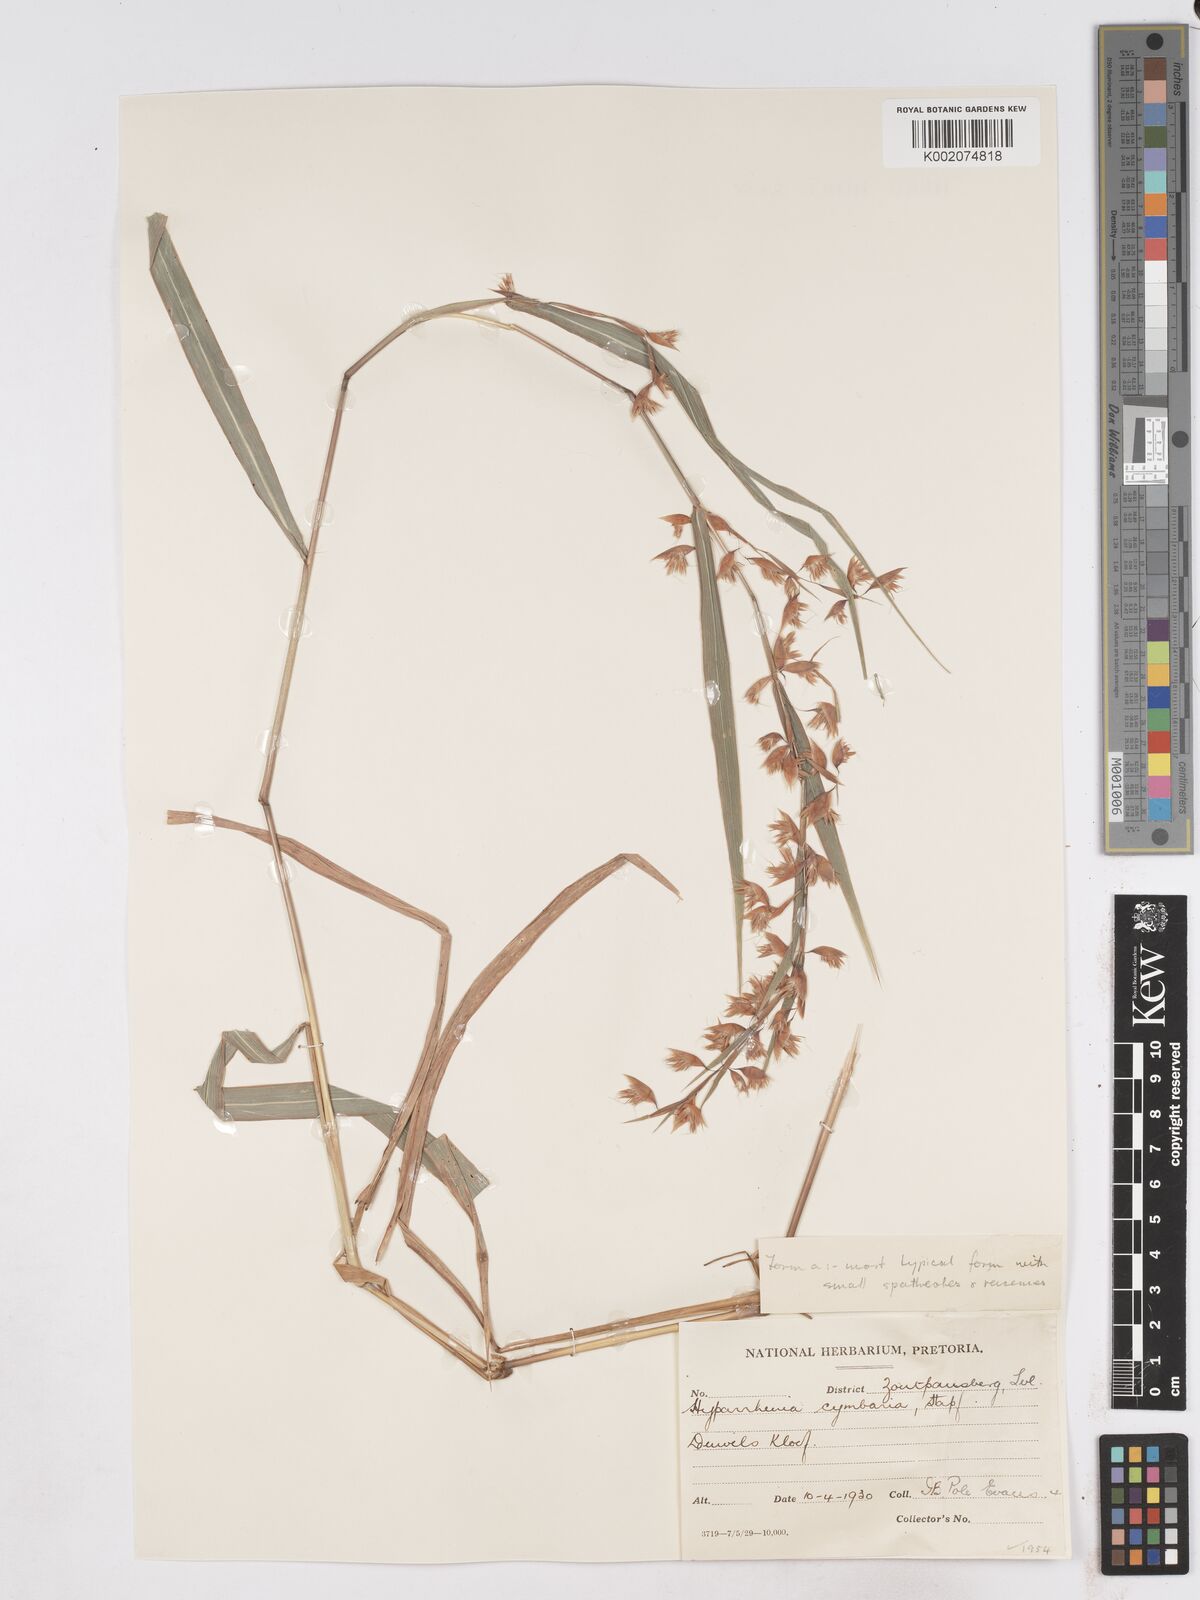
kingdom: Plantae
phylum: Tracheophyta
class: Liliopsida
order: Poales
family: Poaceae
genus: Hyparrhenia
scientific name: Hyparrhenia cymbaria
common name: Boat thatching grass
